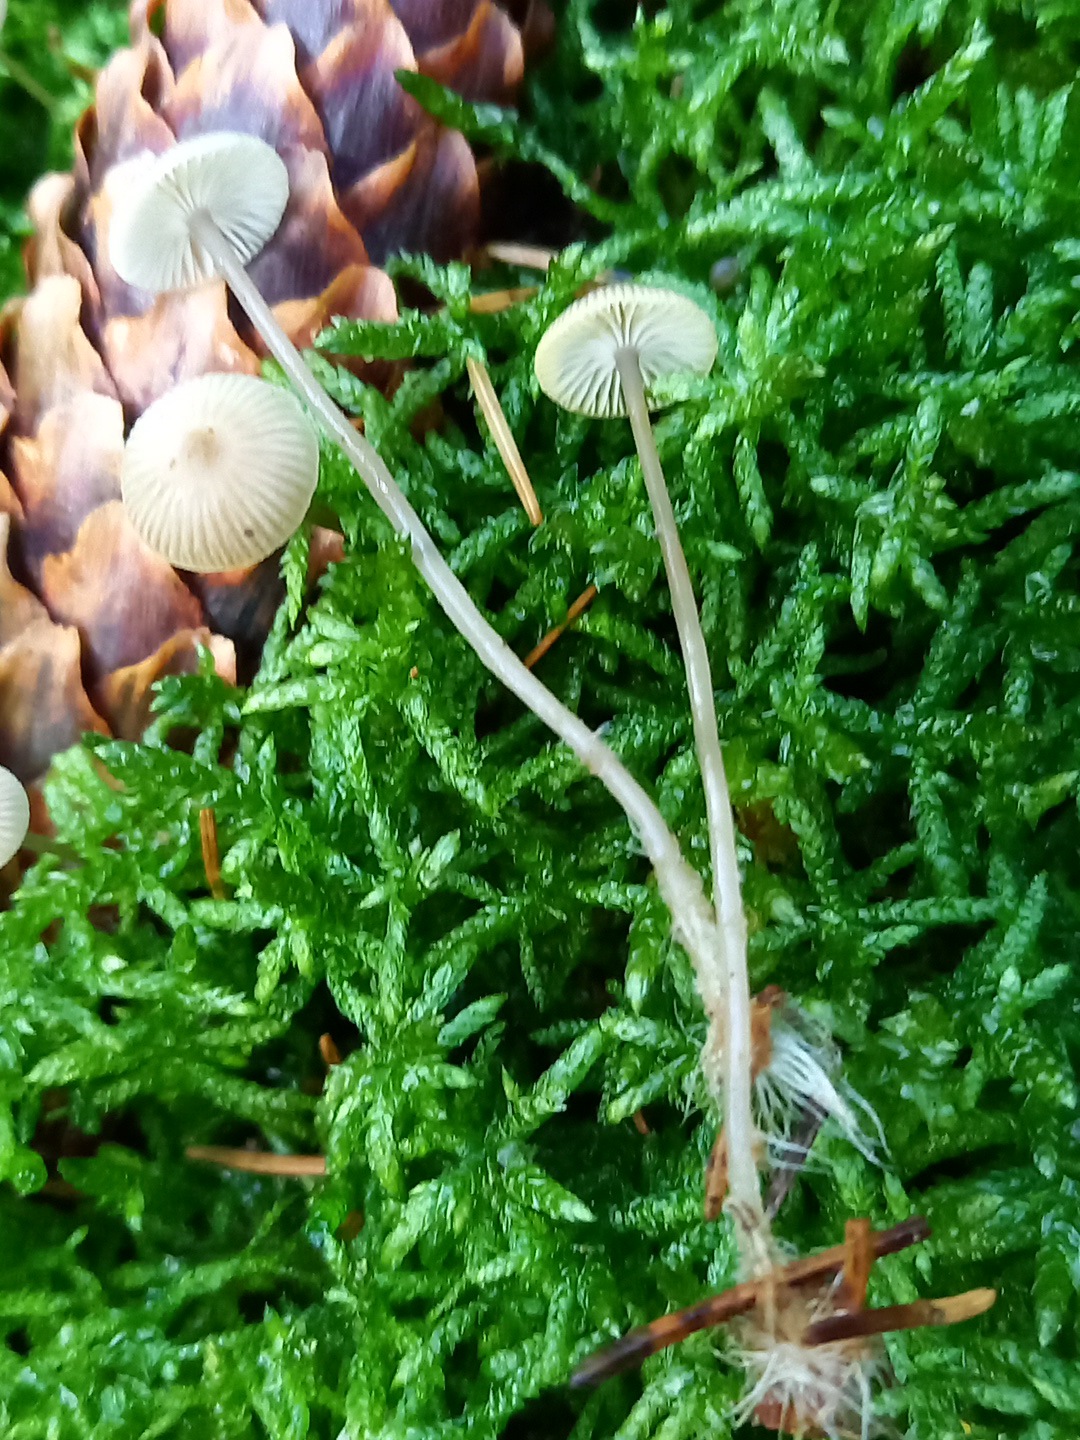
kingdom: Fungi
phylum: Basidiomycota
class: Agaricomycetes
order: Agaricales
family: Mycenaceae
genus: Mycena
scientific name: Mycena vulgaris
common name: klæbrig huesvamp
